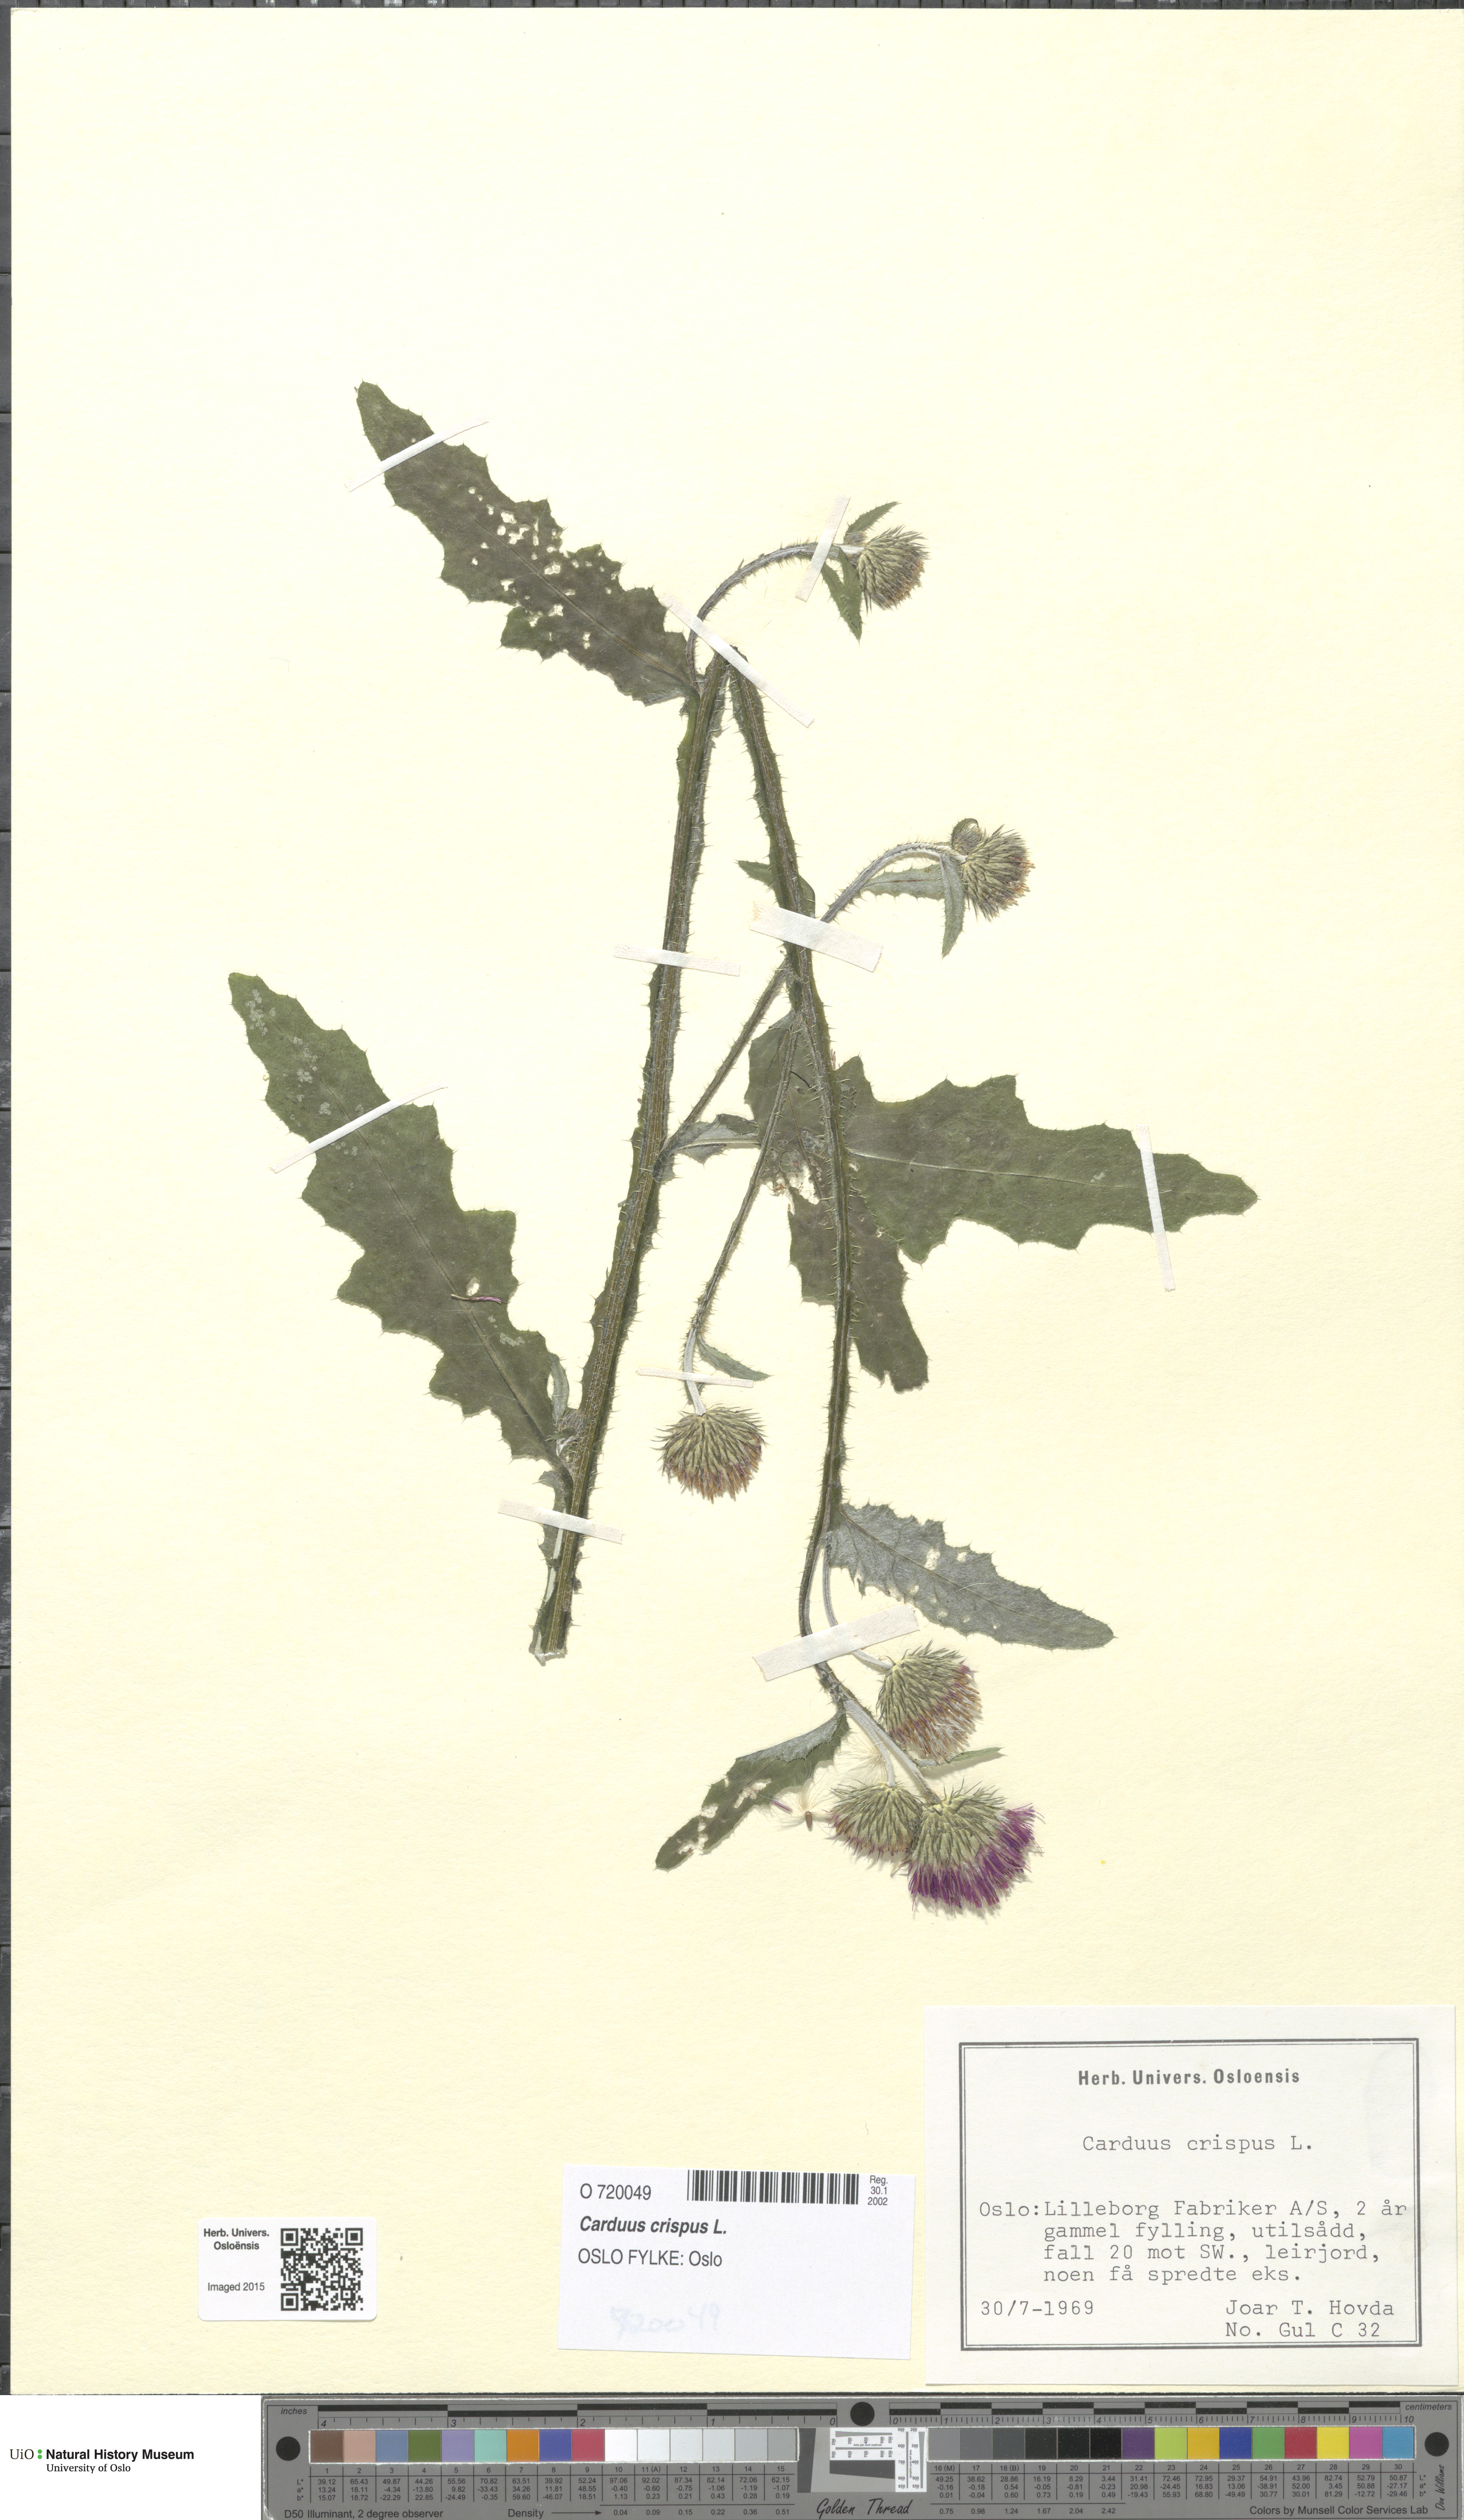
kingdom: Plantae
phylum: Tracheophyta
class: Magnoliopsida
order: Asterales
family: Asteraceae
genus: Carduus
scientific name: Carduus crispus
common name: Welted thistle
